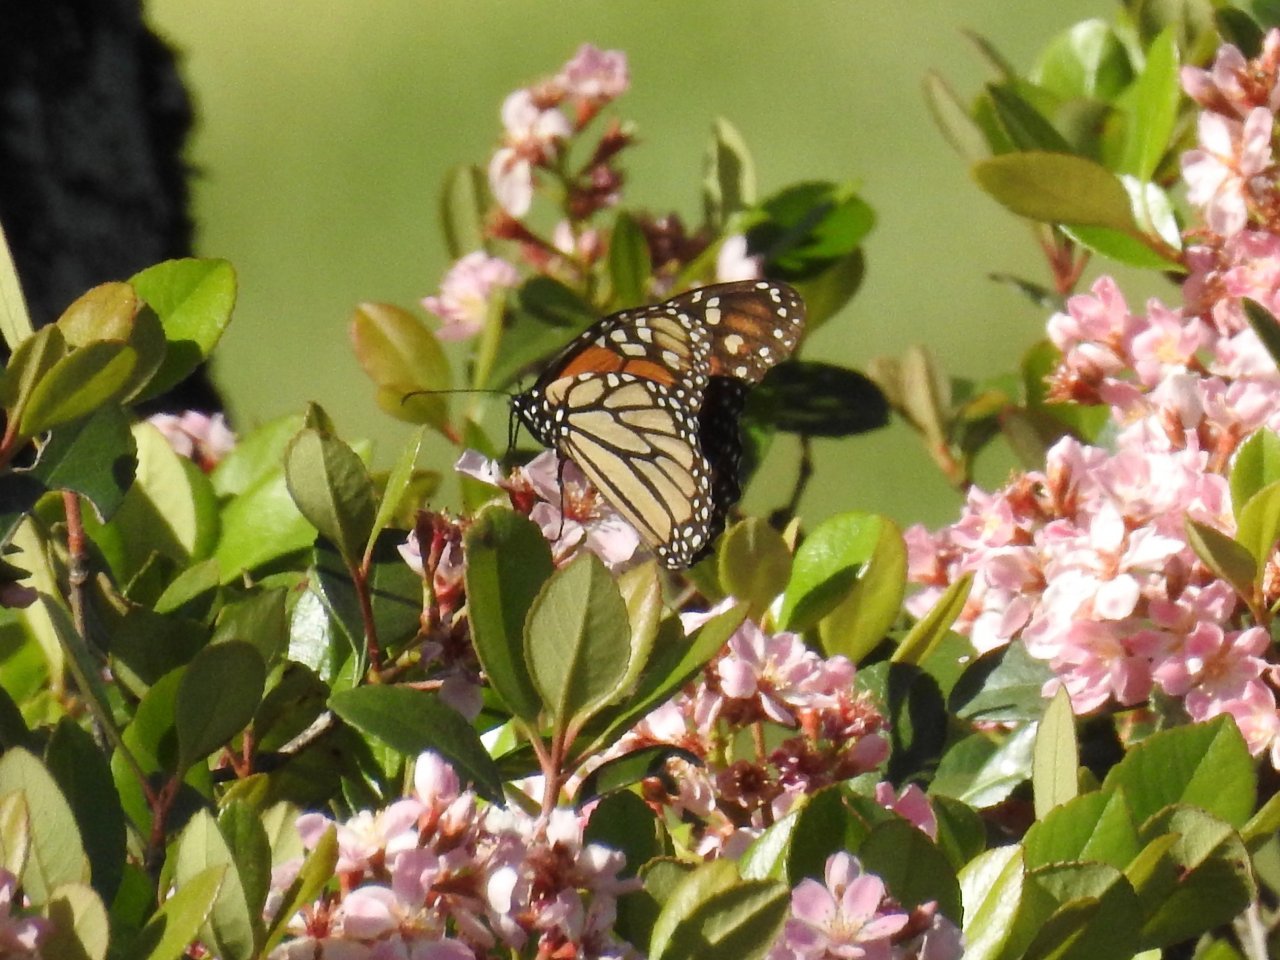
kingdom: Animalia
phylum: Arthropoda
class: Insecta
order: Lepidoptera
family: Nymphalidae
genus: Danaus
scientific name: Danaus plexippus
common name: Monarch
